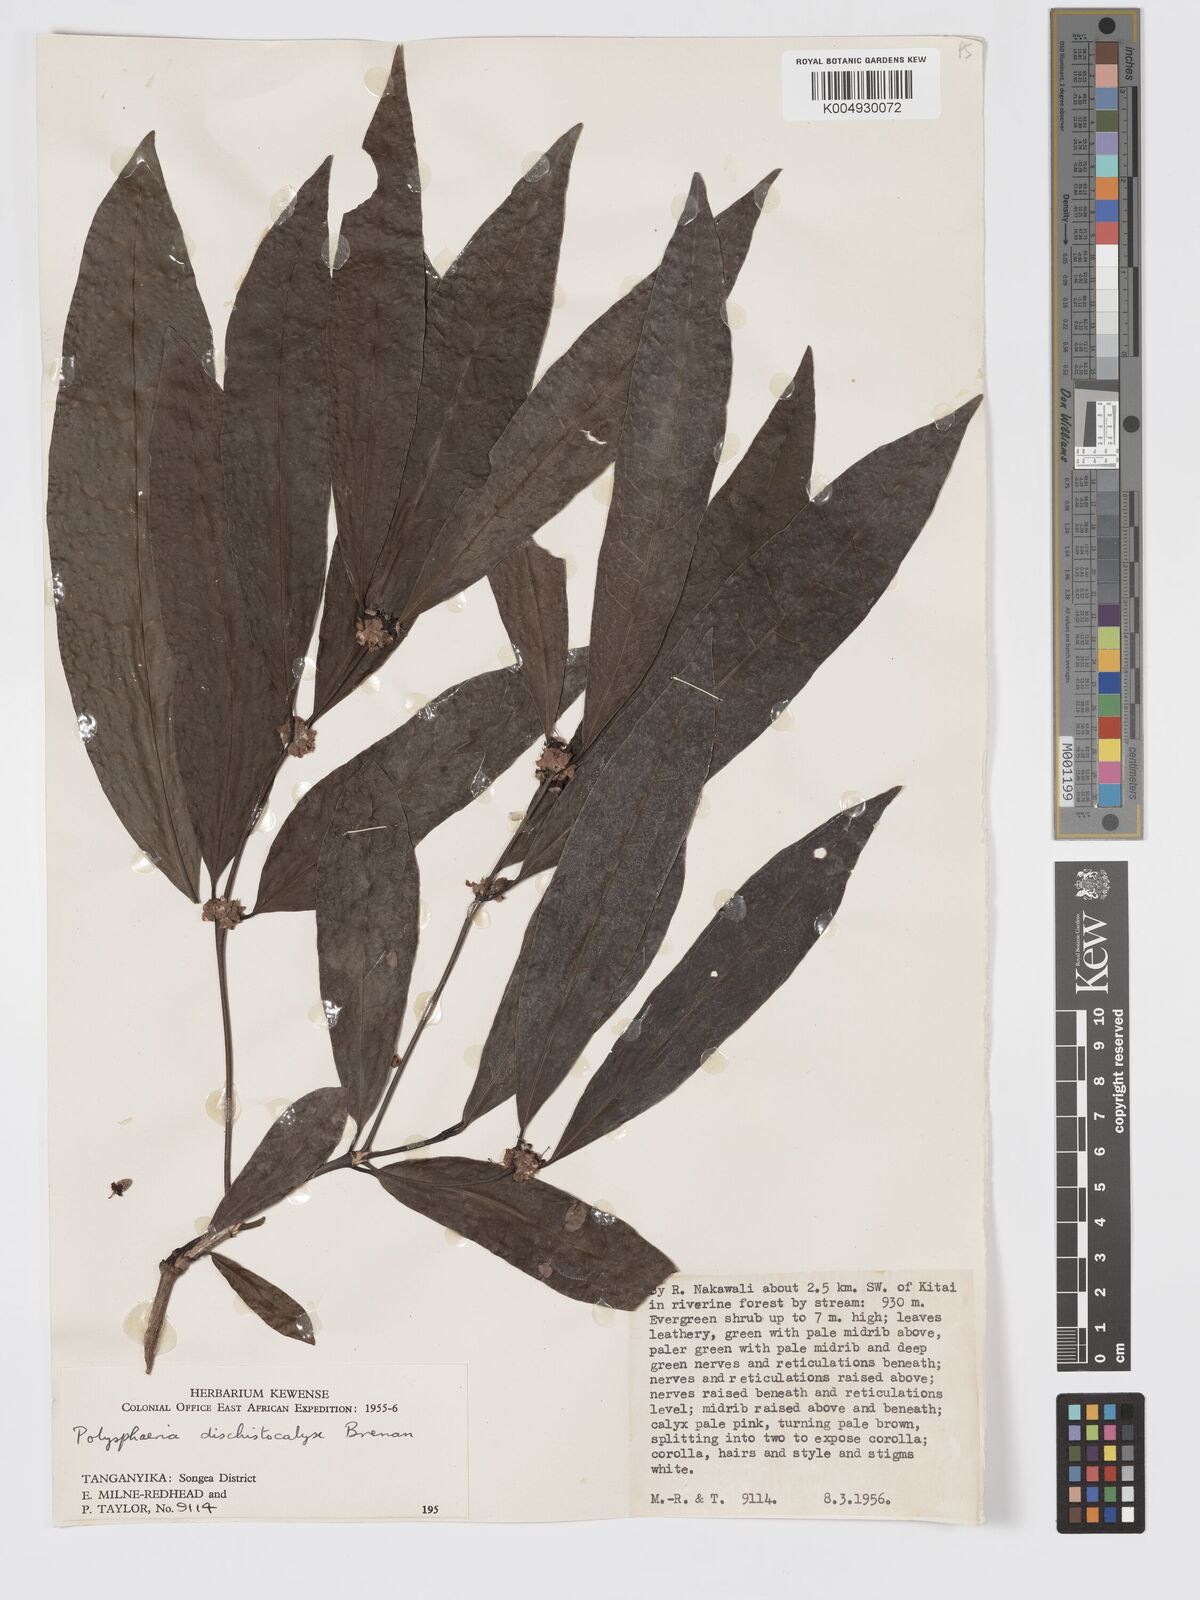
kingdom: Plantae
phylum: Tracheophyta
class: Magnoliopsida
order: Gentianales
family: Rubiaceae
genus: Polysphaeria
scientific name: Polysphaeria dischistocalyx
